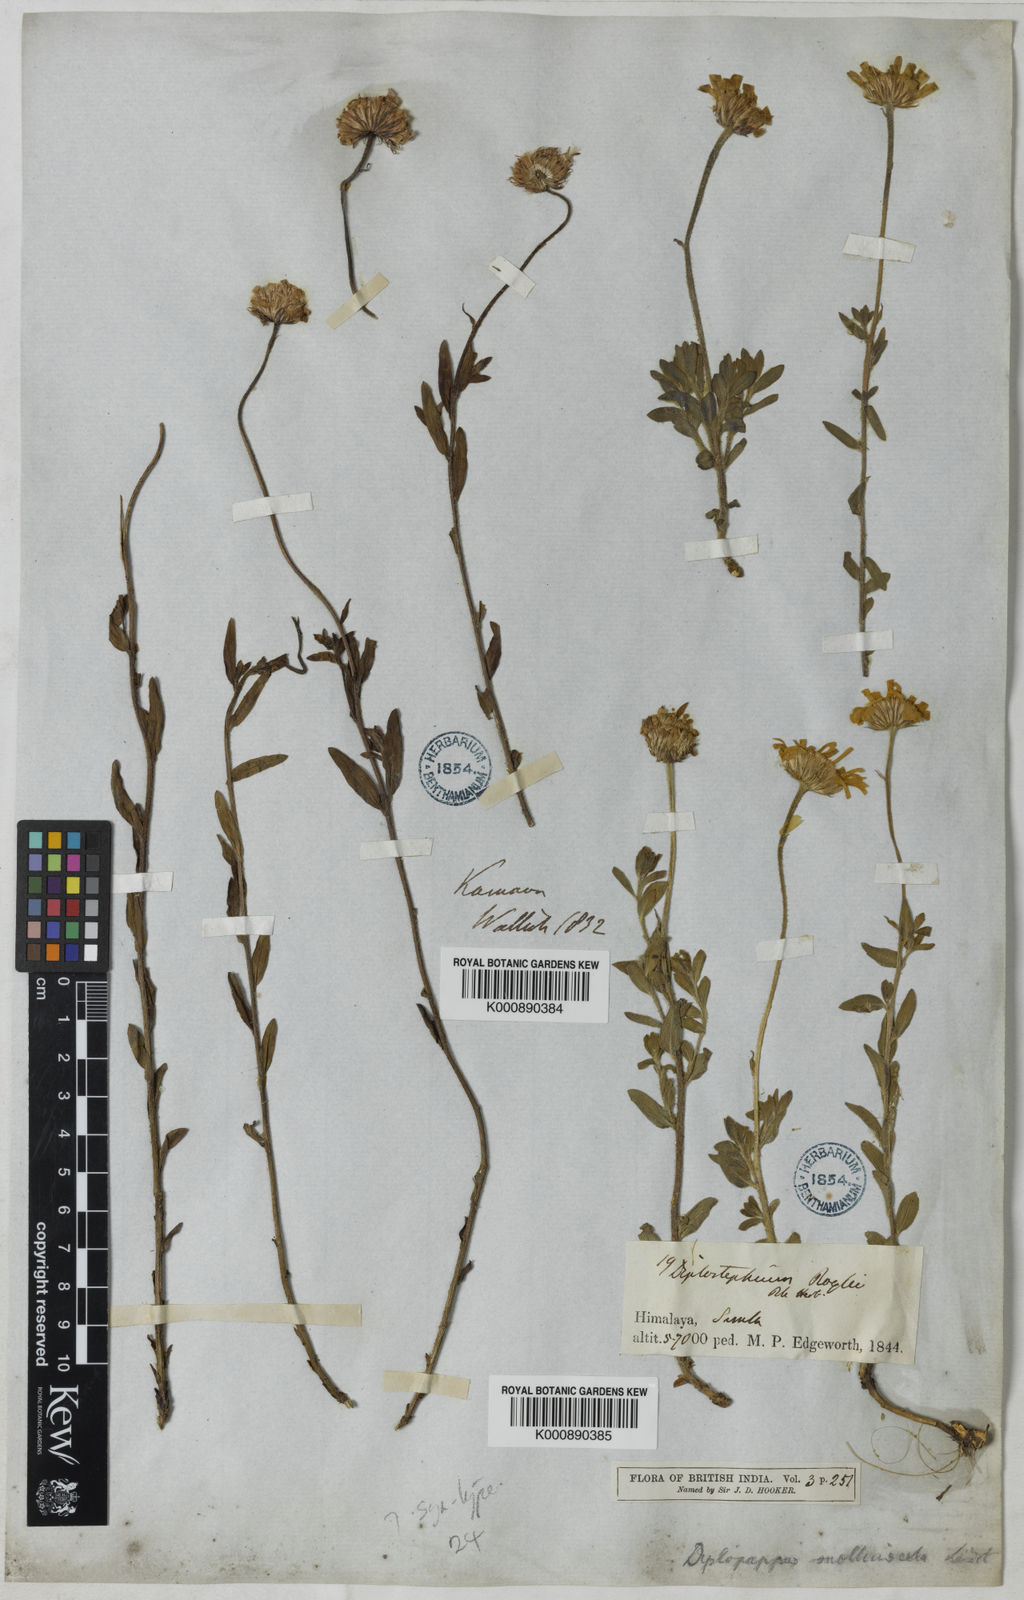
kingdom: Plantae
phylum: Tracheophyta
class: Magnoliopsida
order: Asterales
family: Asteraceae
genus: Tibetiodes
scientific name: Tibetiodes stracheyi
